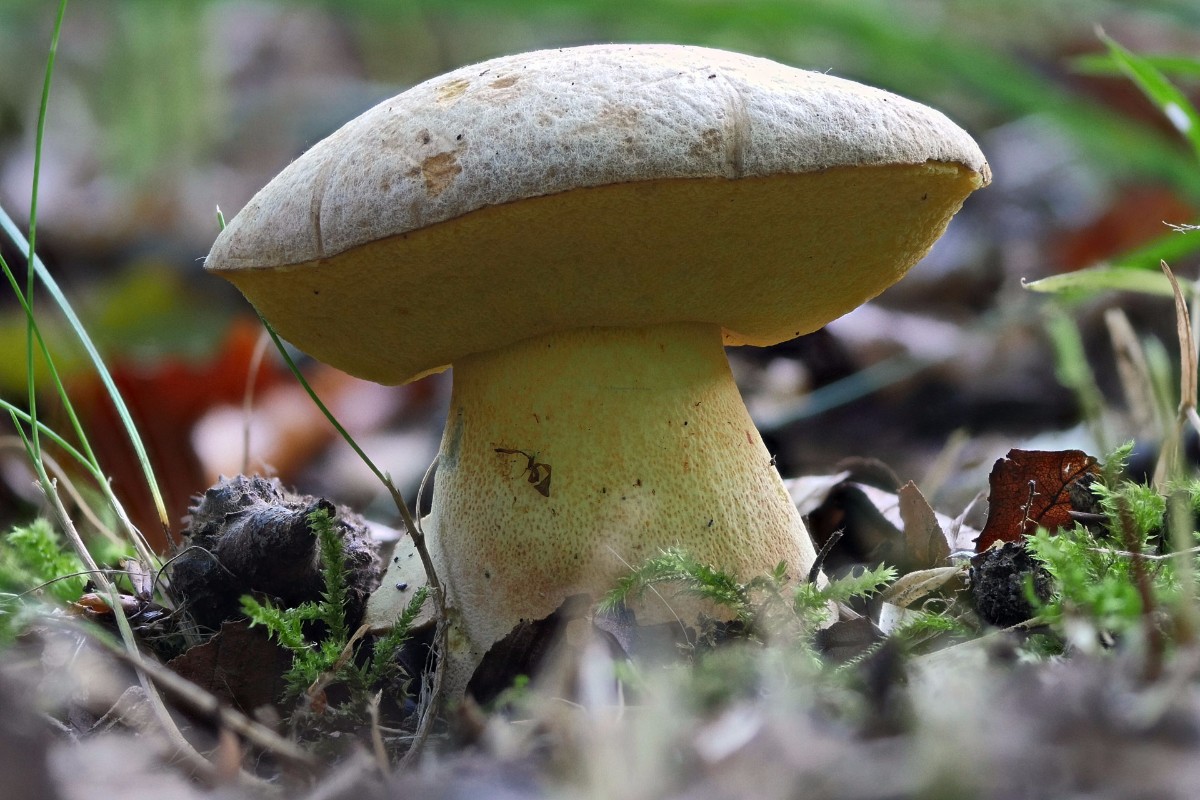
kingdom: Fungi
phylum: Basidiomycota
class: Agaricomycetes
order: Boletales
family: Boletaceae
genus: Butyriboletus
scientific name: Butyriboletus fechtneri
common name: sølvskinnende rørhat
